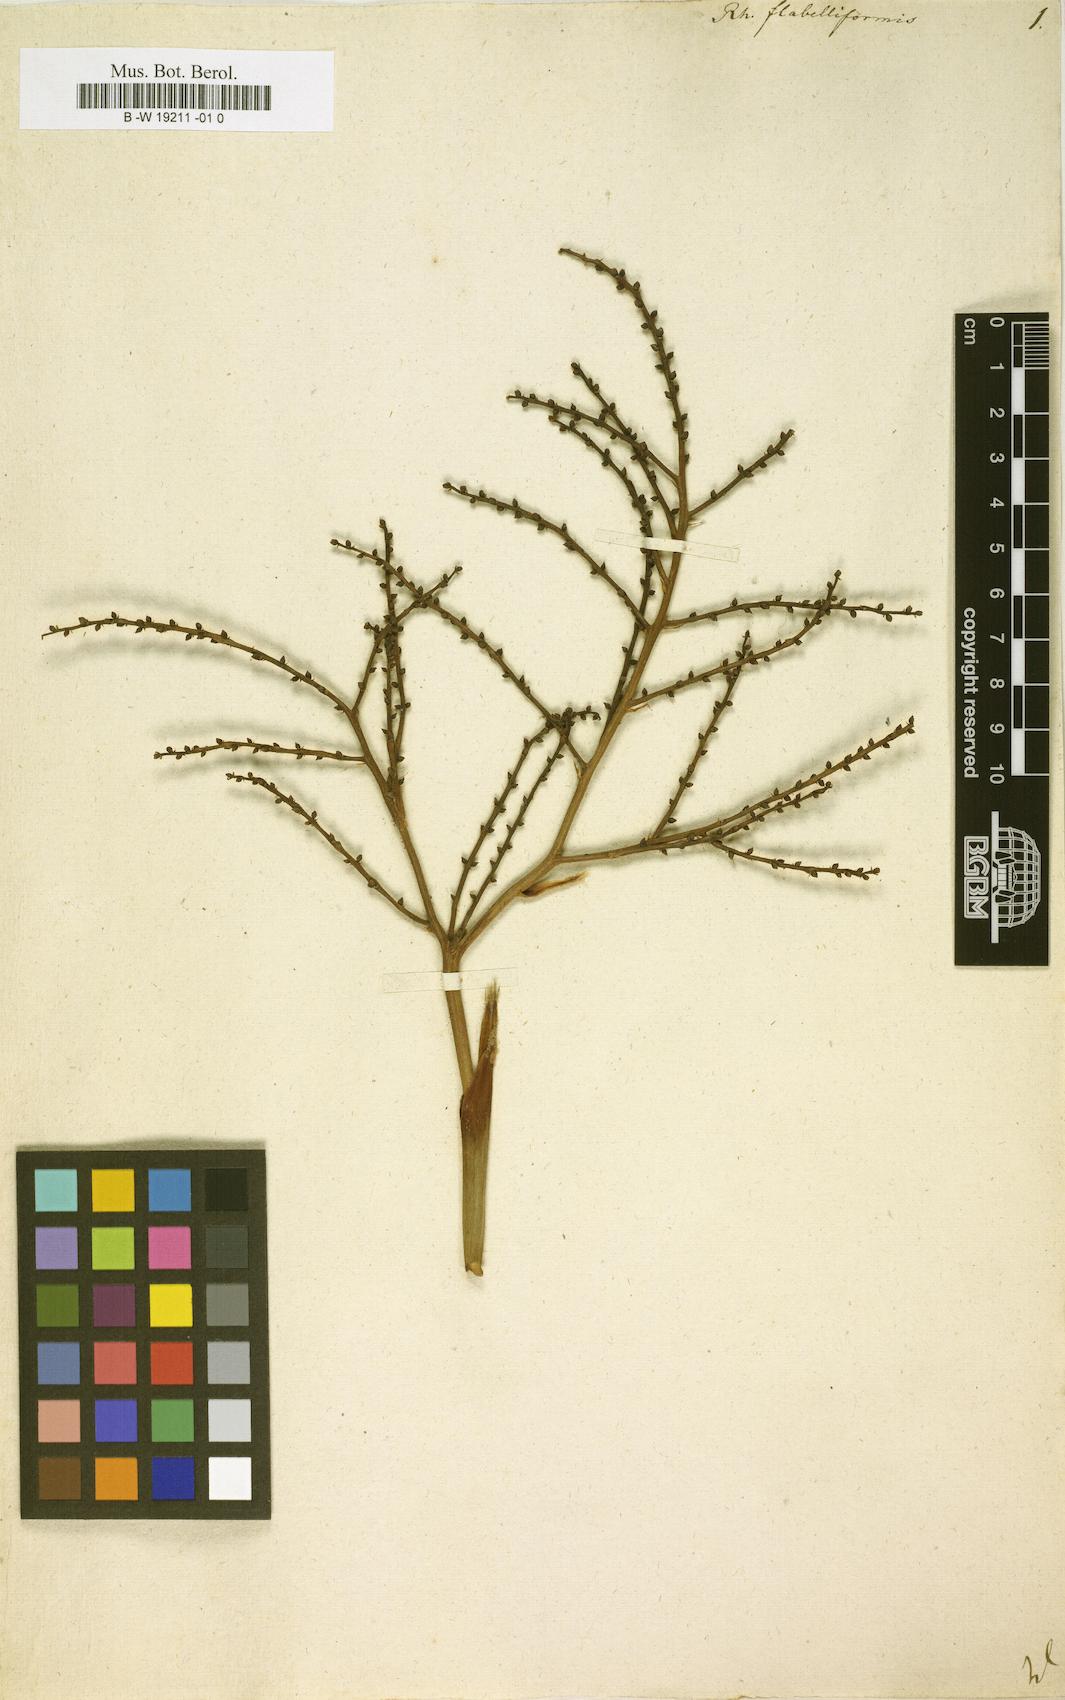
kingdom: Plantae
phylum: Tracheophyta
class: Liliopsida
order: Arecales
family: Arecaceae
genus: Rhapis
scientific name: Rhapis excelsa
